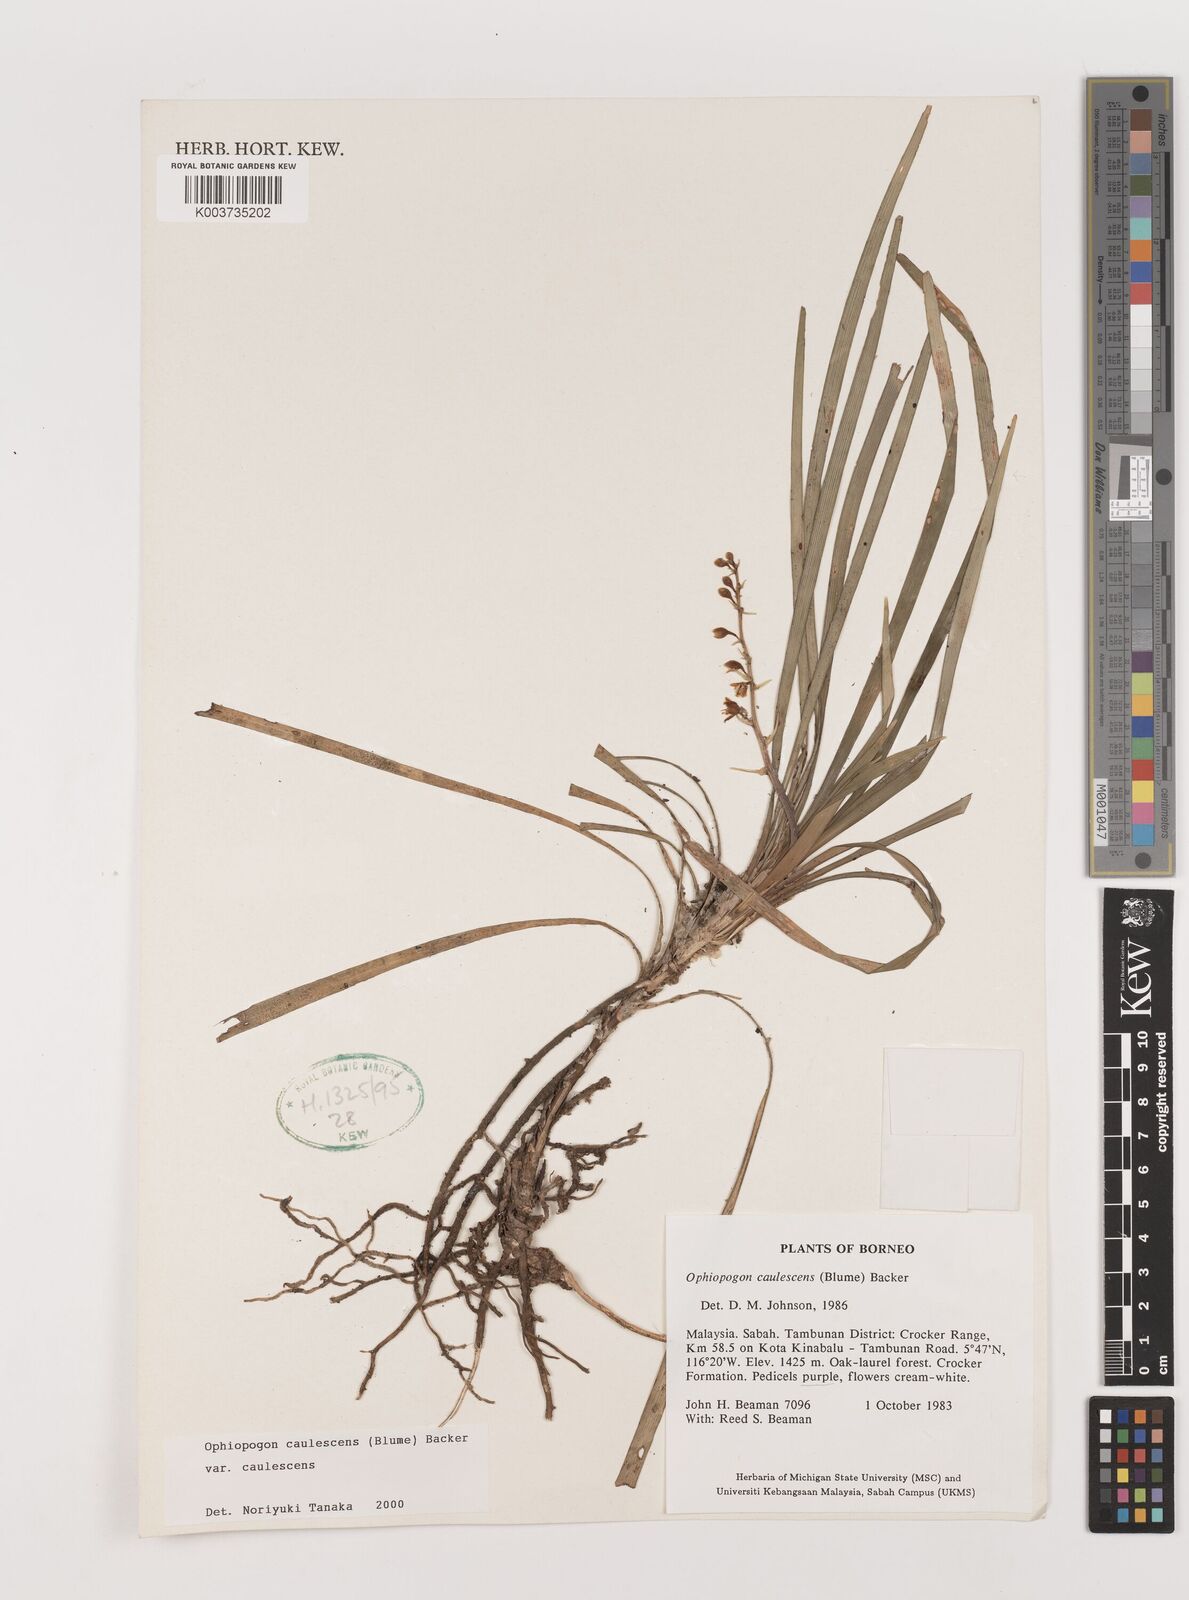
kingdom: Plantae
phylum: Tracheophyta
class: Liliopsida
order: Asparagales
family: Asparagaceae
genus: Ophiopogon
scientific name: Ophiopogon caulescens
